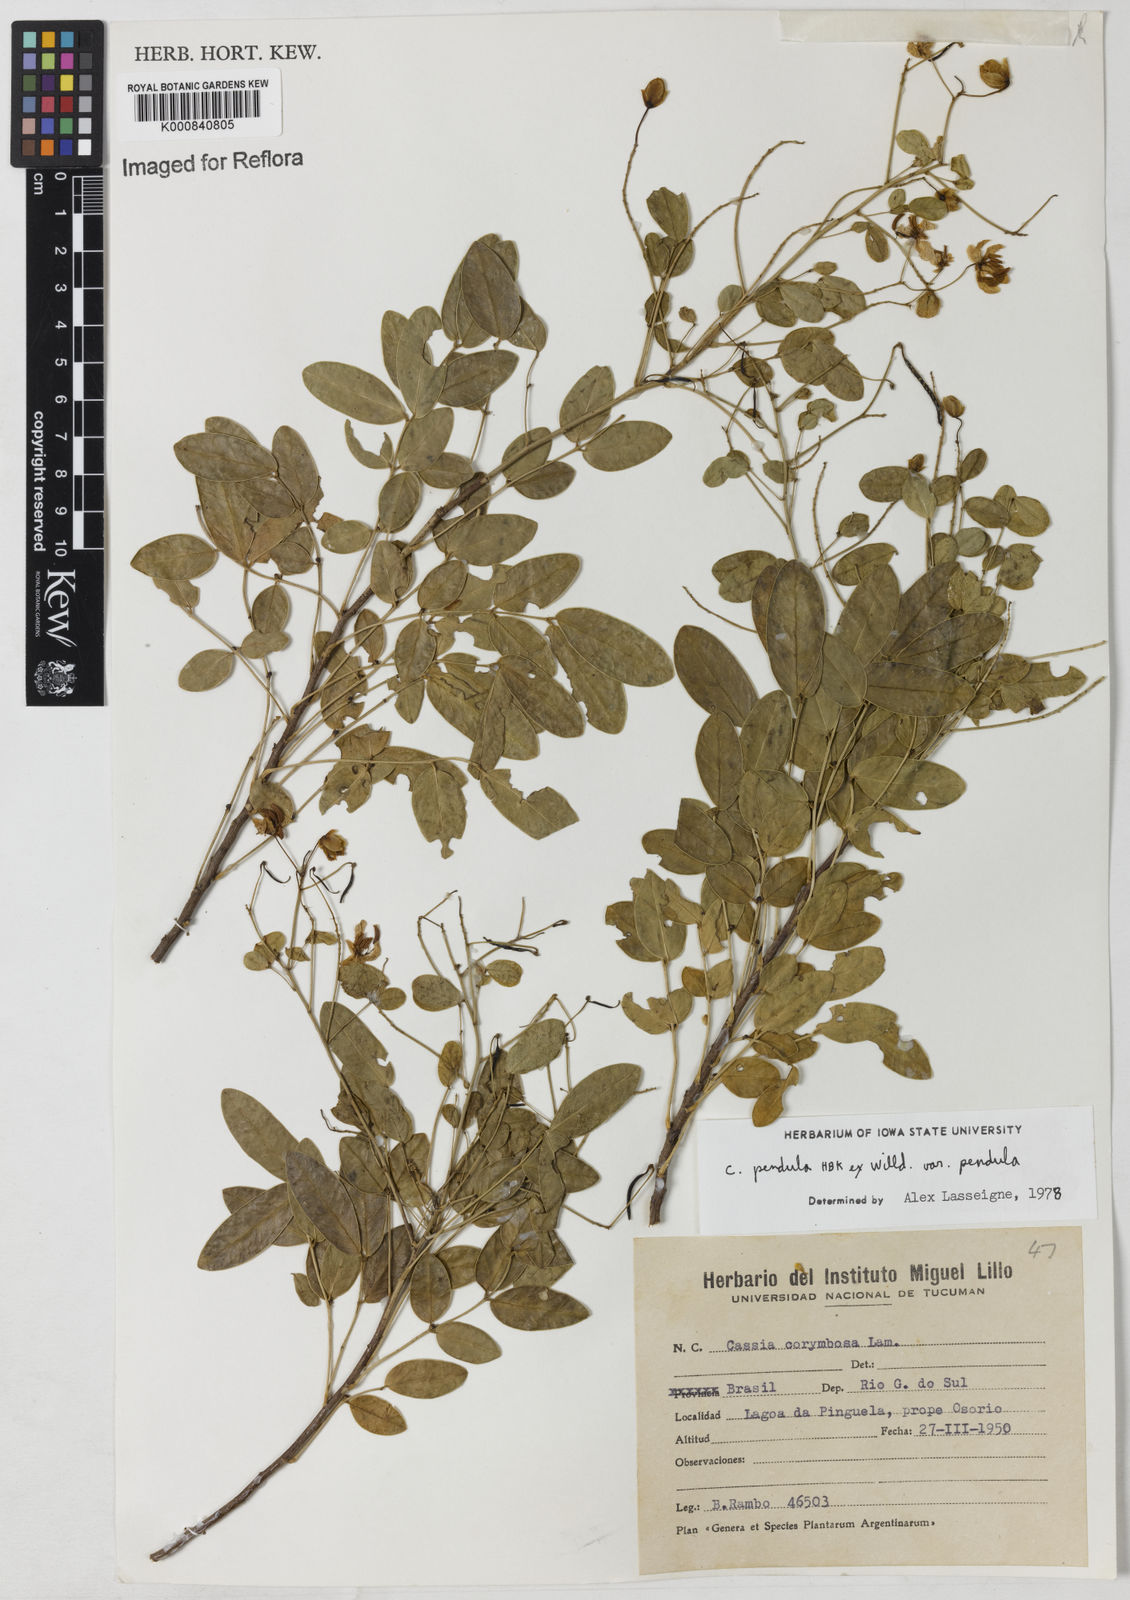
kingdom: Plantae
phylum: Tracheophyta
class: Magnoliopsida
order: Fabales
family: Fabaceae
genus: Senna
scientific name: Senna pendula
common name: Easter cassia
